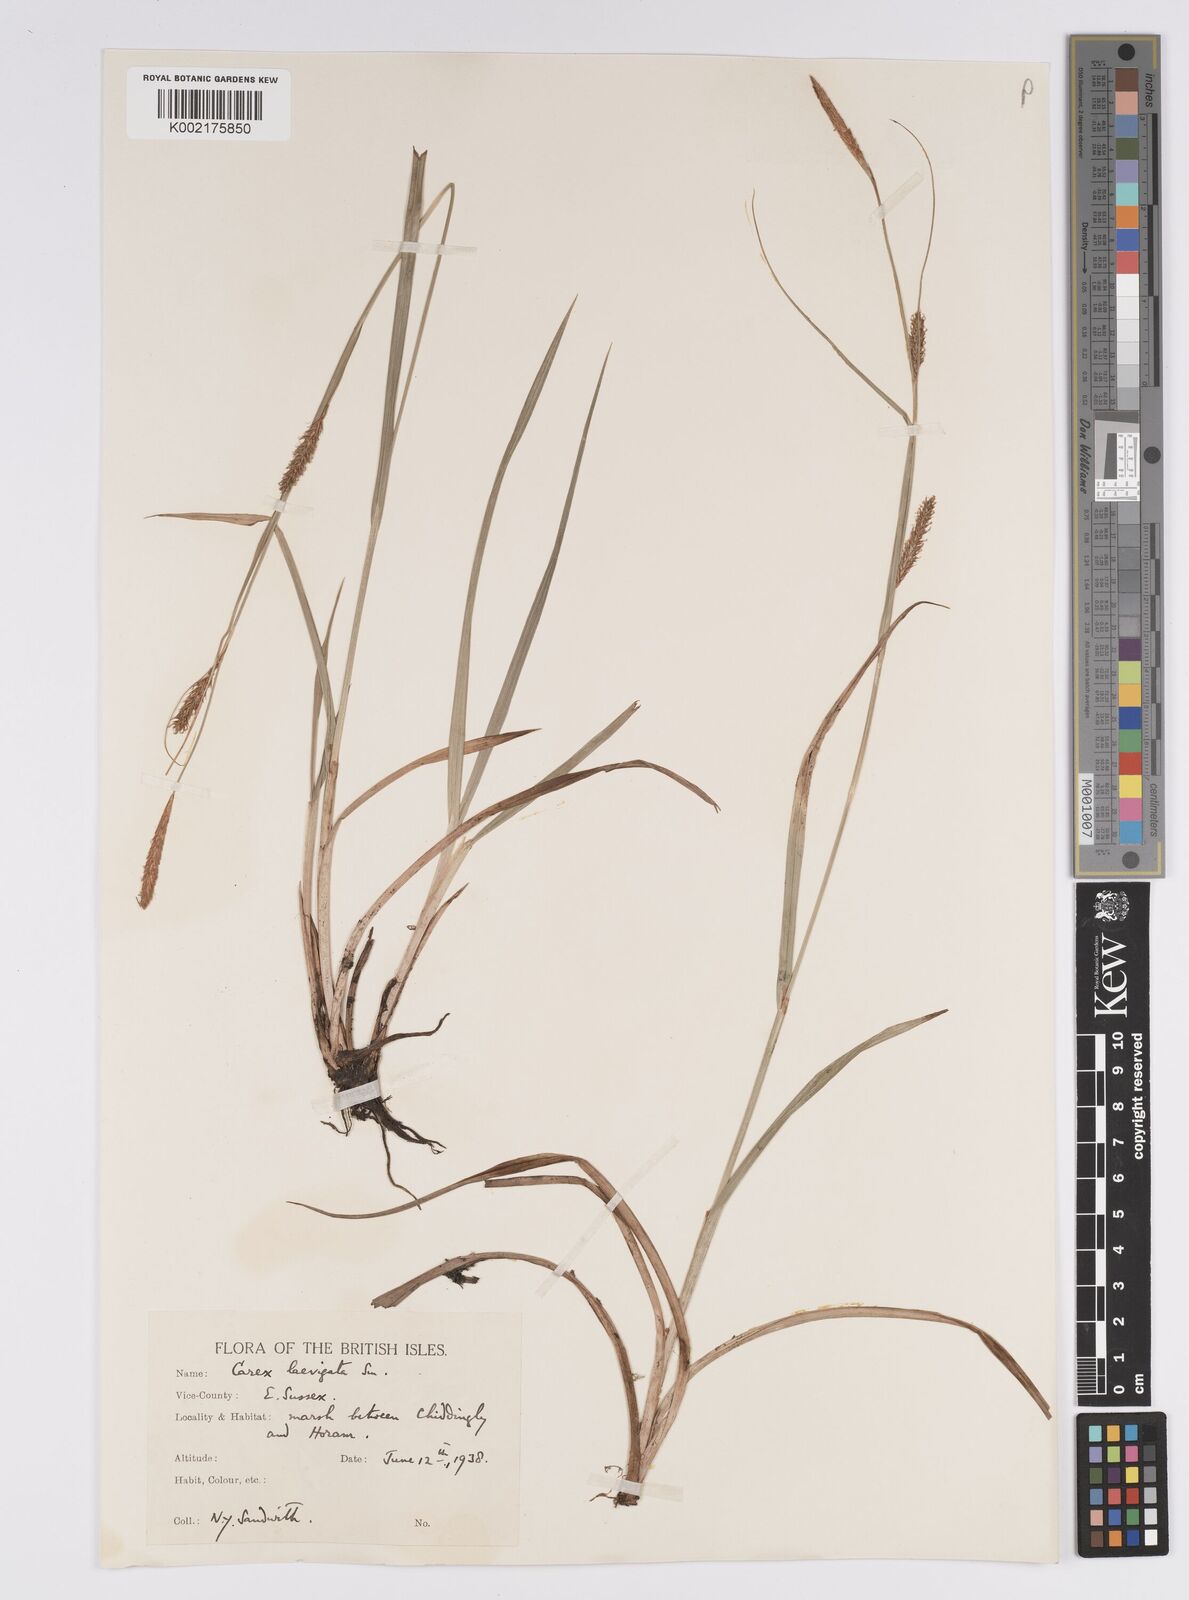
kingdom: Plantae
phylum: Tracheophyta
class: Liliopsida
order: Poales
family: Cyperaceae
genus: Carex
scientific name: Carex laevigata
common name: Smooth-stalked sedge
